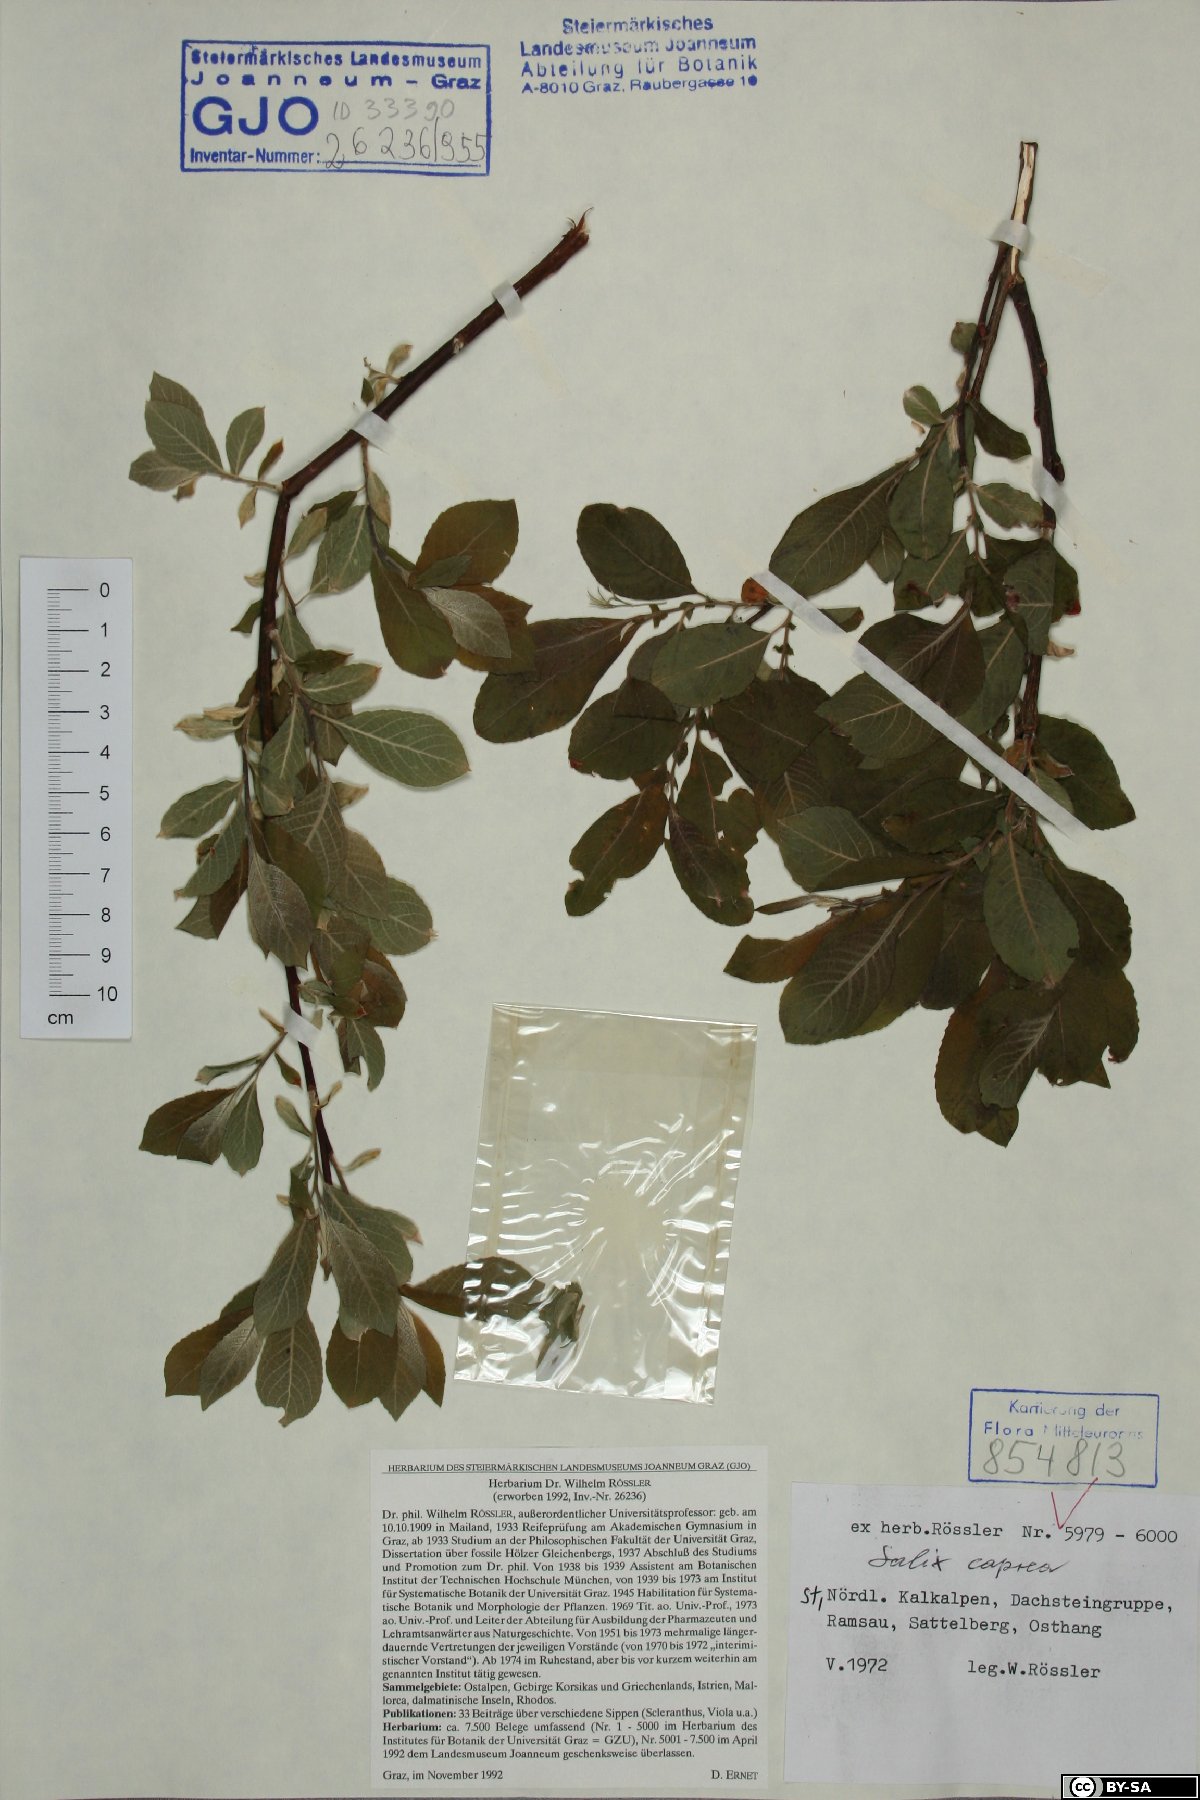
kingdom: Plantae
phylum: Tracheophyta
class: Magnoliopsida
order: Malpighiales
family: Salicaceae
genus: Salix
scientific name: Salix caprea
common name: Goat willow
